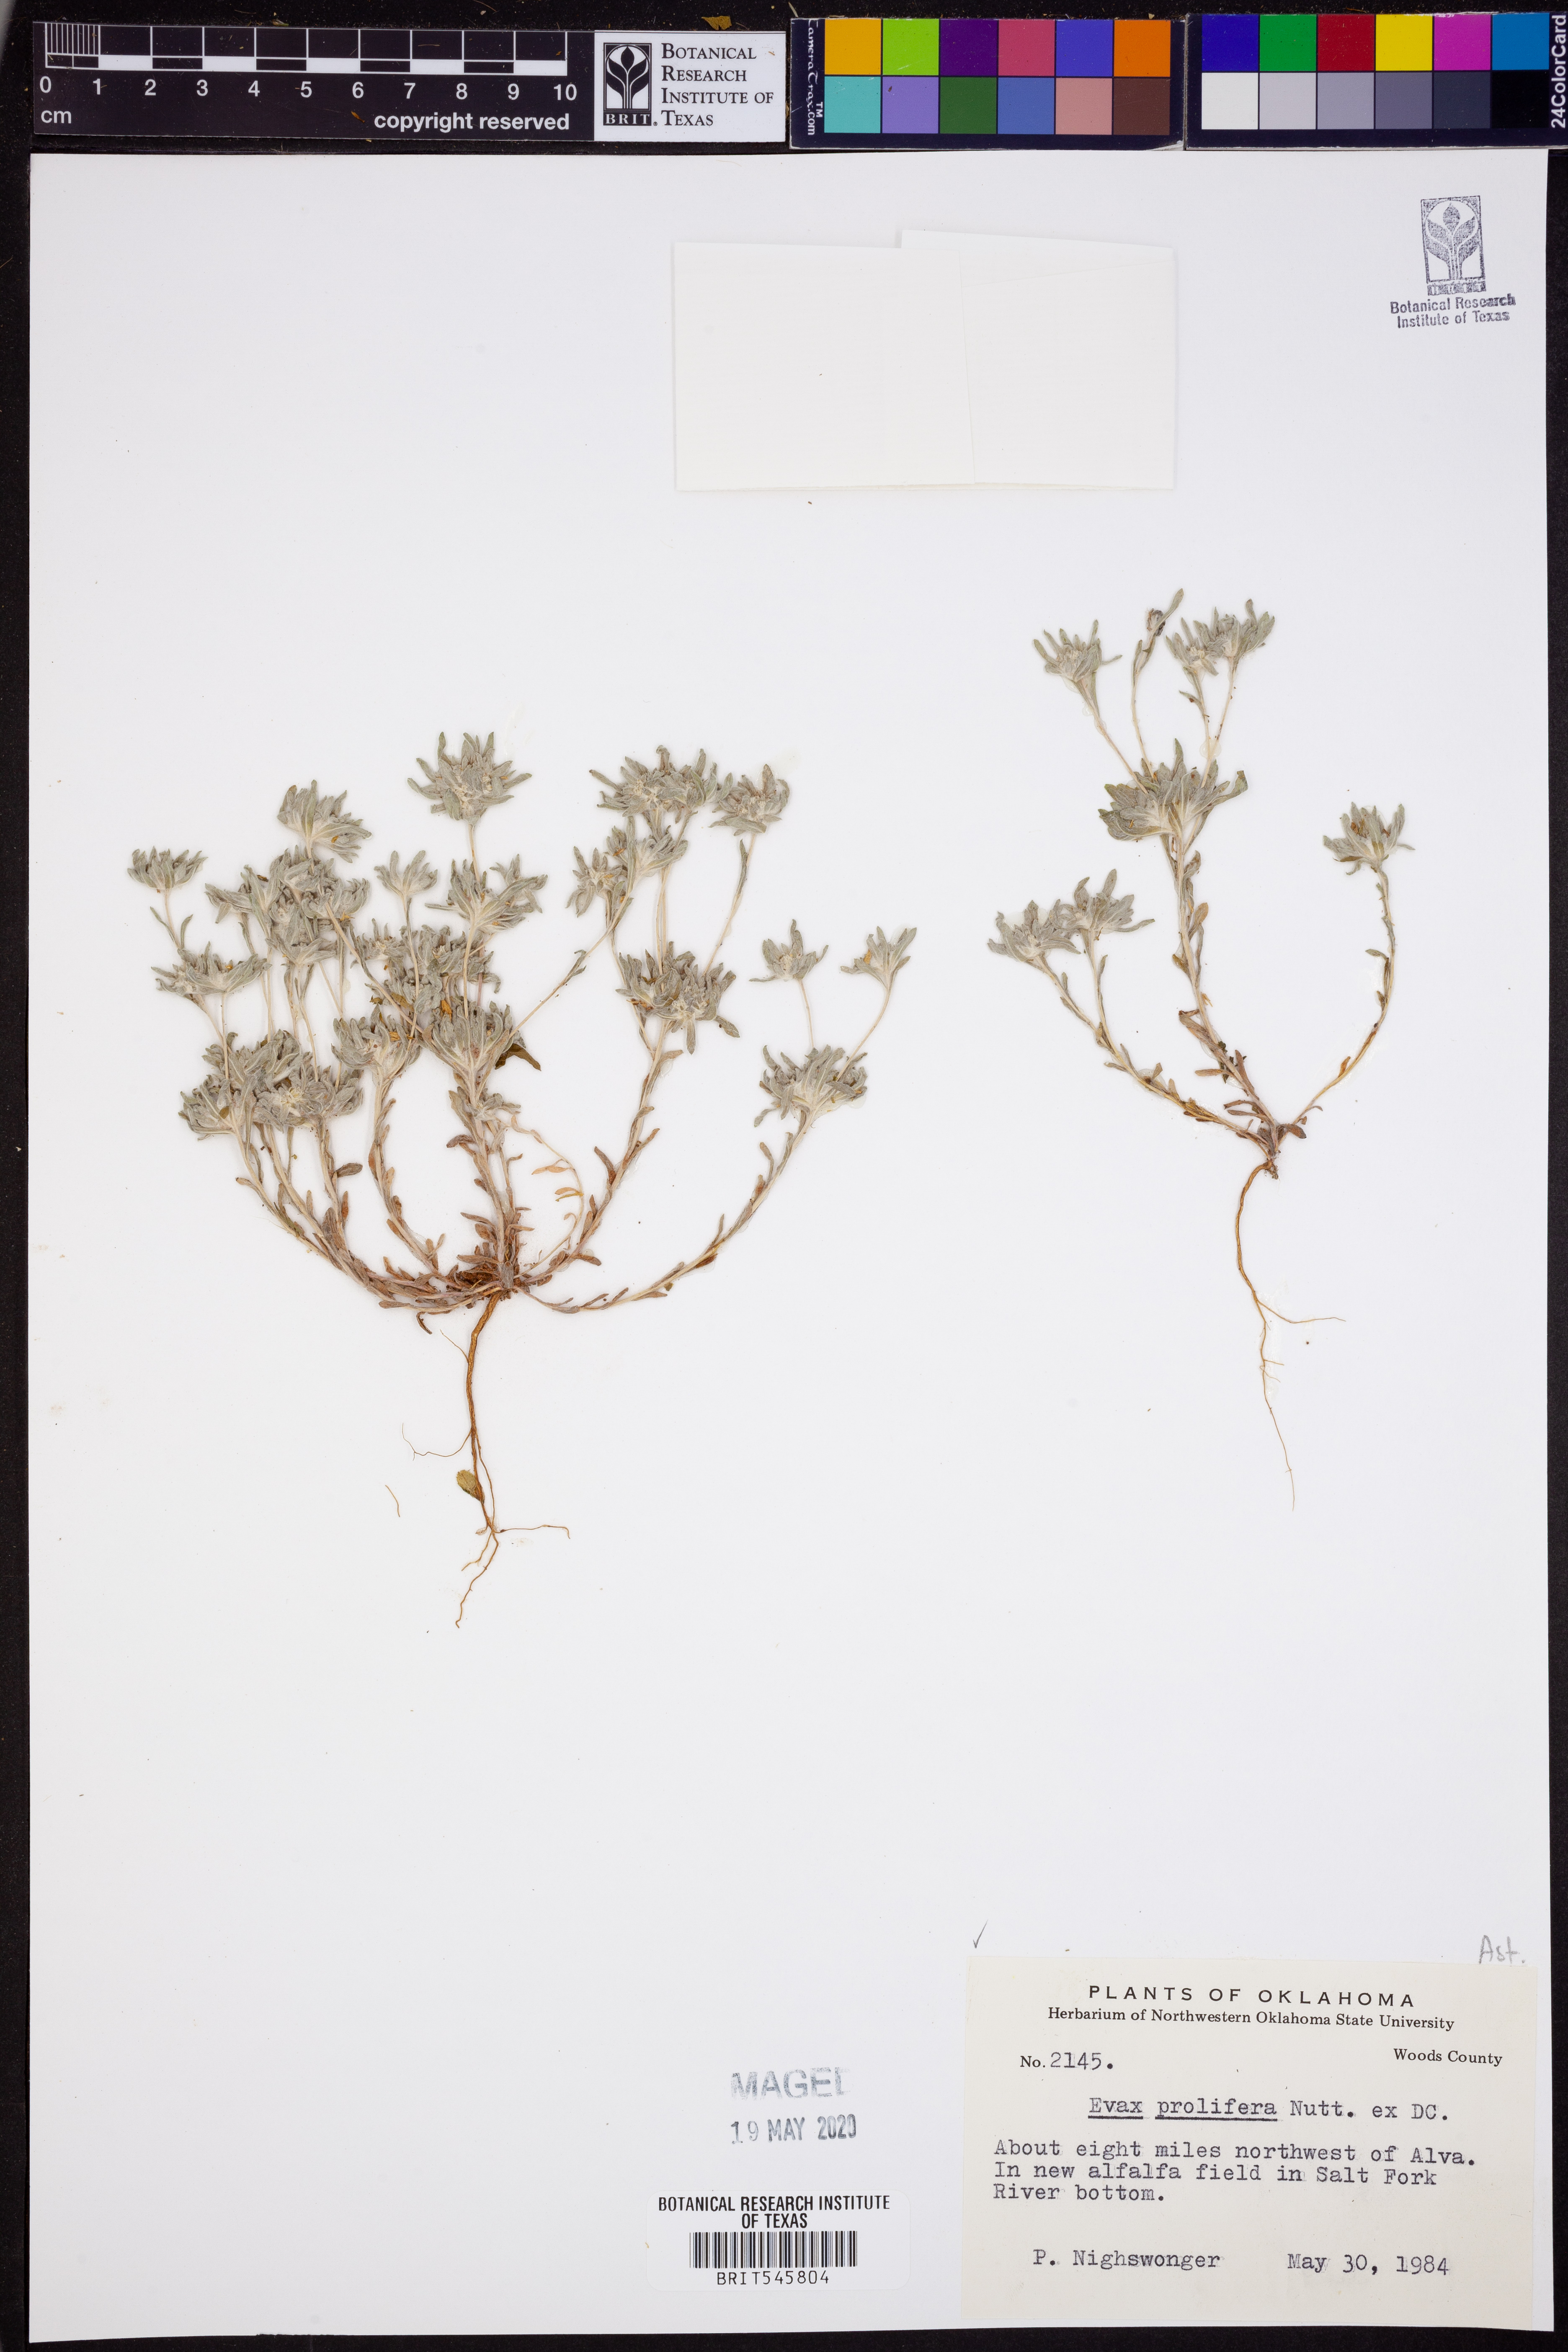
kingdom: Plantae
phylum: Tracheophyta
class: Magnoliopsida
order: Asterales
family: Asteraceae
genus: Diaperia
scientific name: Diaperia prolifera
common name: Big-head rabbit-tobacco
